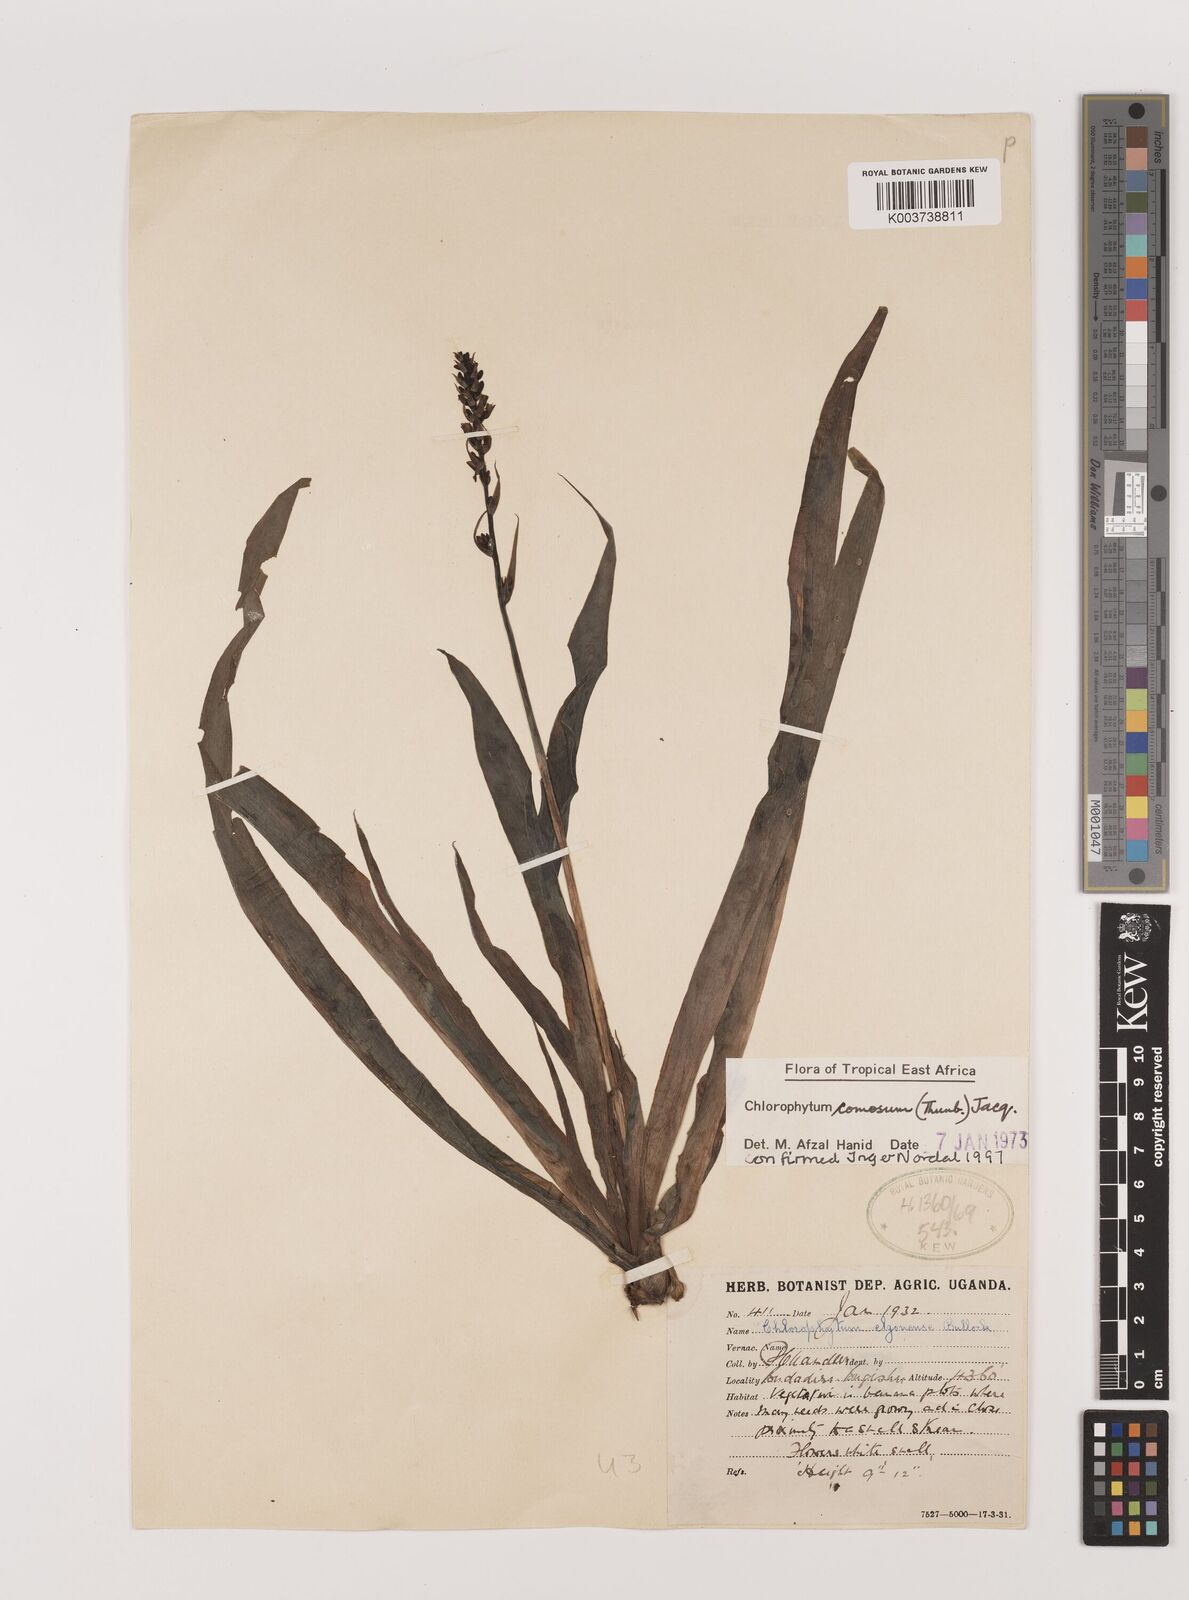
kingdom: Plantae
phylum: Tracheophyta
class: Liliopsida
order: Asparagales
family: Asparagaceae
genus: Chlorophytum
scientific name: Chlorophytum comosum
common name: Spider plant
